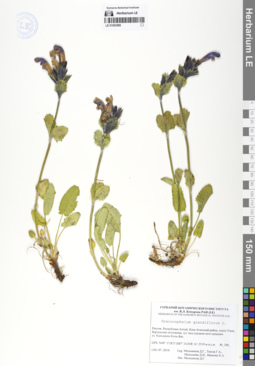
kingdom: Plantae
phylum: Tracheophyta
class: Magnoliopsida
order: Lamiales
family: Lamiaceae
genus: Dracocephalum
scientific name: Dracocephalum grandiflorum
